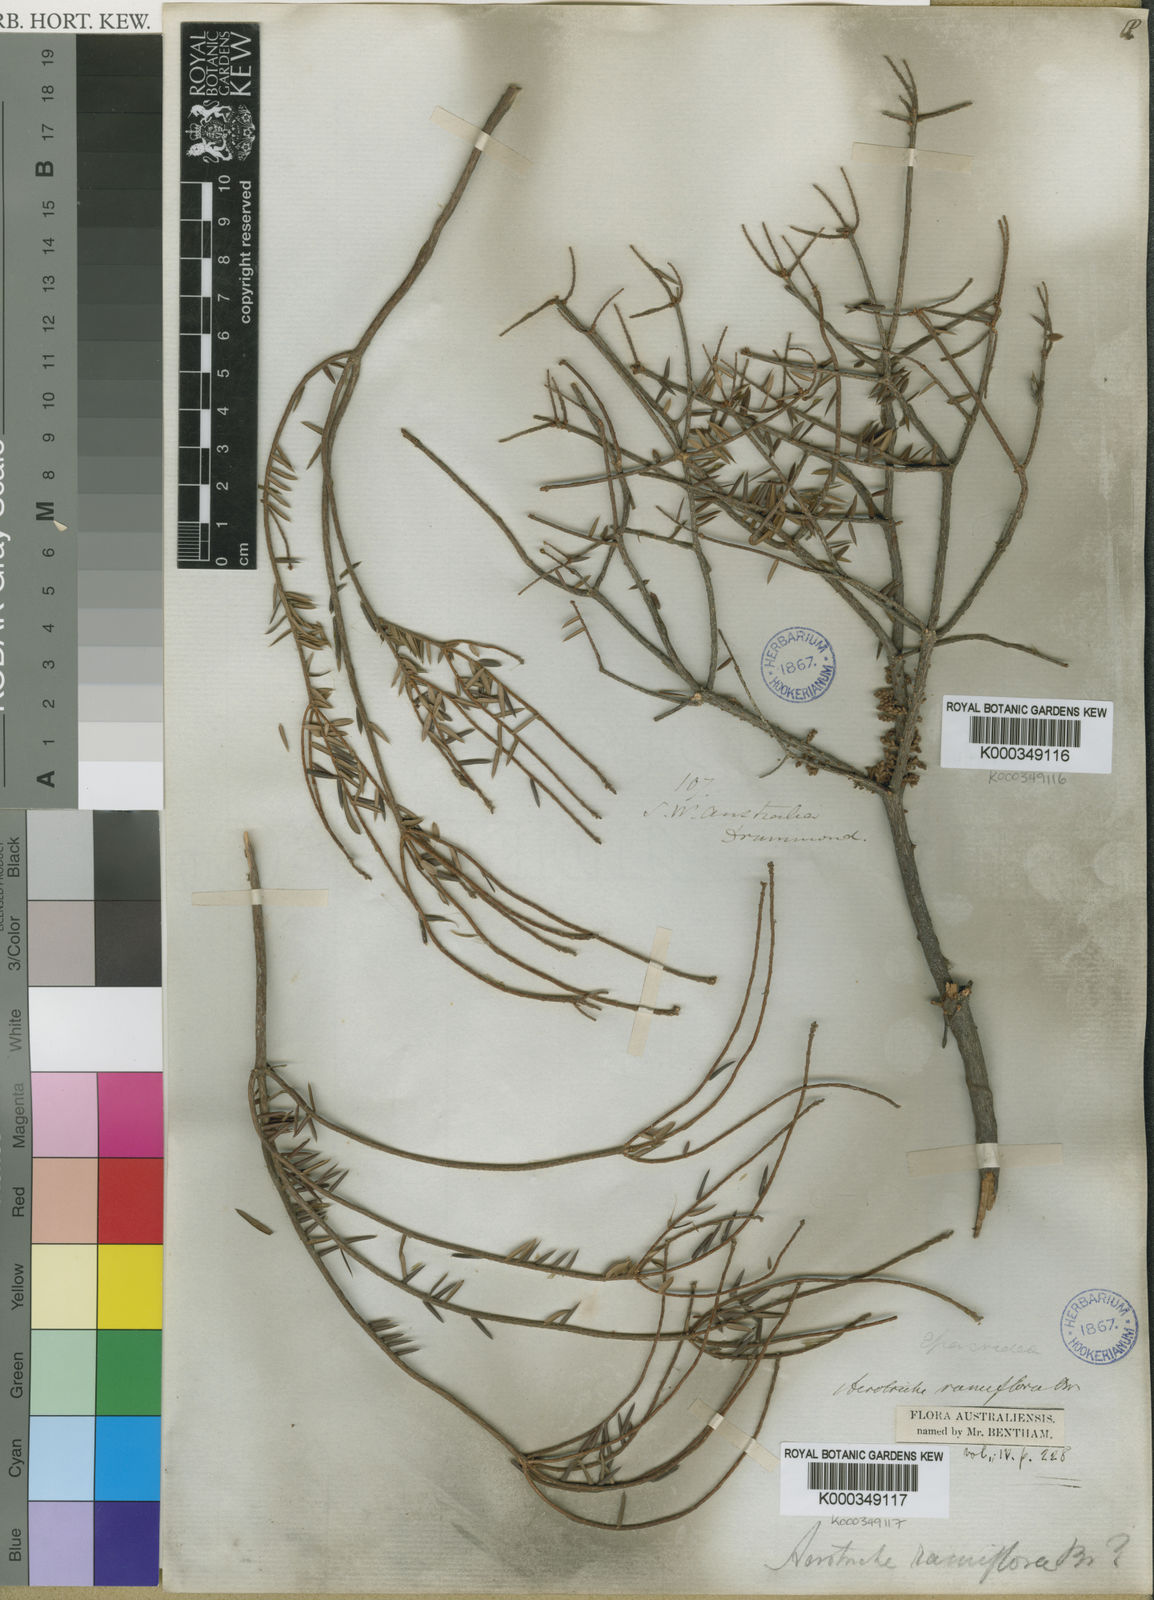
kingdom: Plantae
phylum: Tracheophyta
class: Magnoliopsida
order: Ericales
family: Ericaceae
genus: Acrotriche
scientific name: Acrotriche ramiflora
